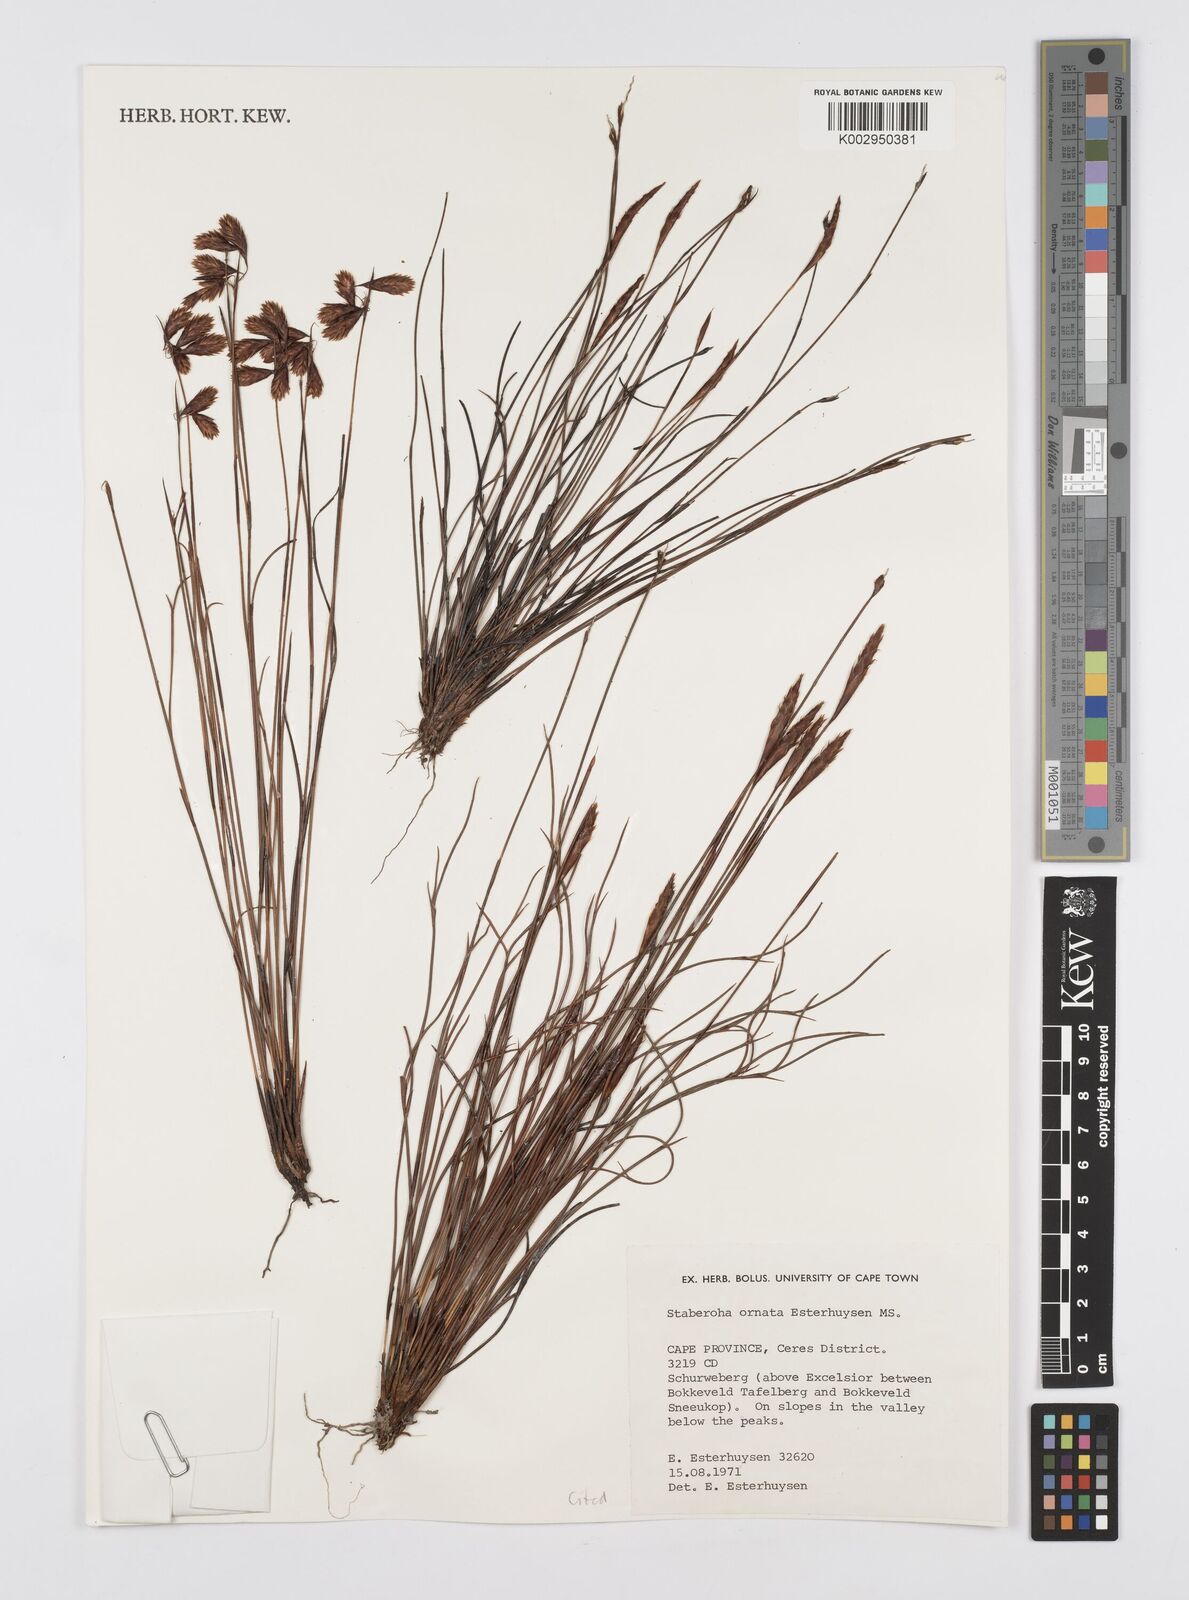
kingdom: Plantae
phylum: Tracheophyta
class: Liliopsida
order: Poales
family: Restionaceae
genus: Staberoha
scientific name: Staberoha ornata
